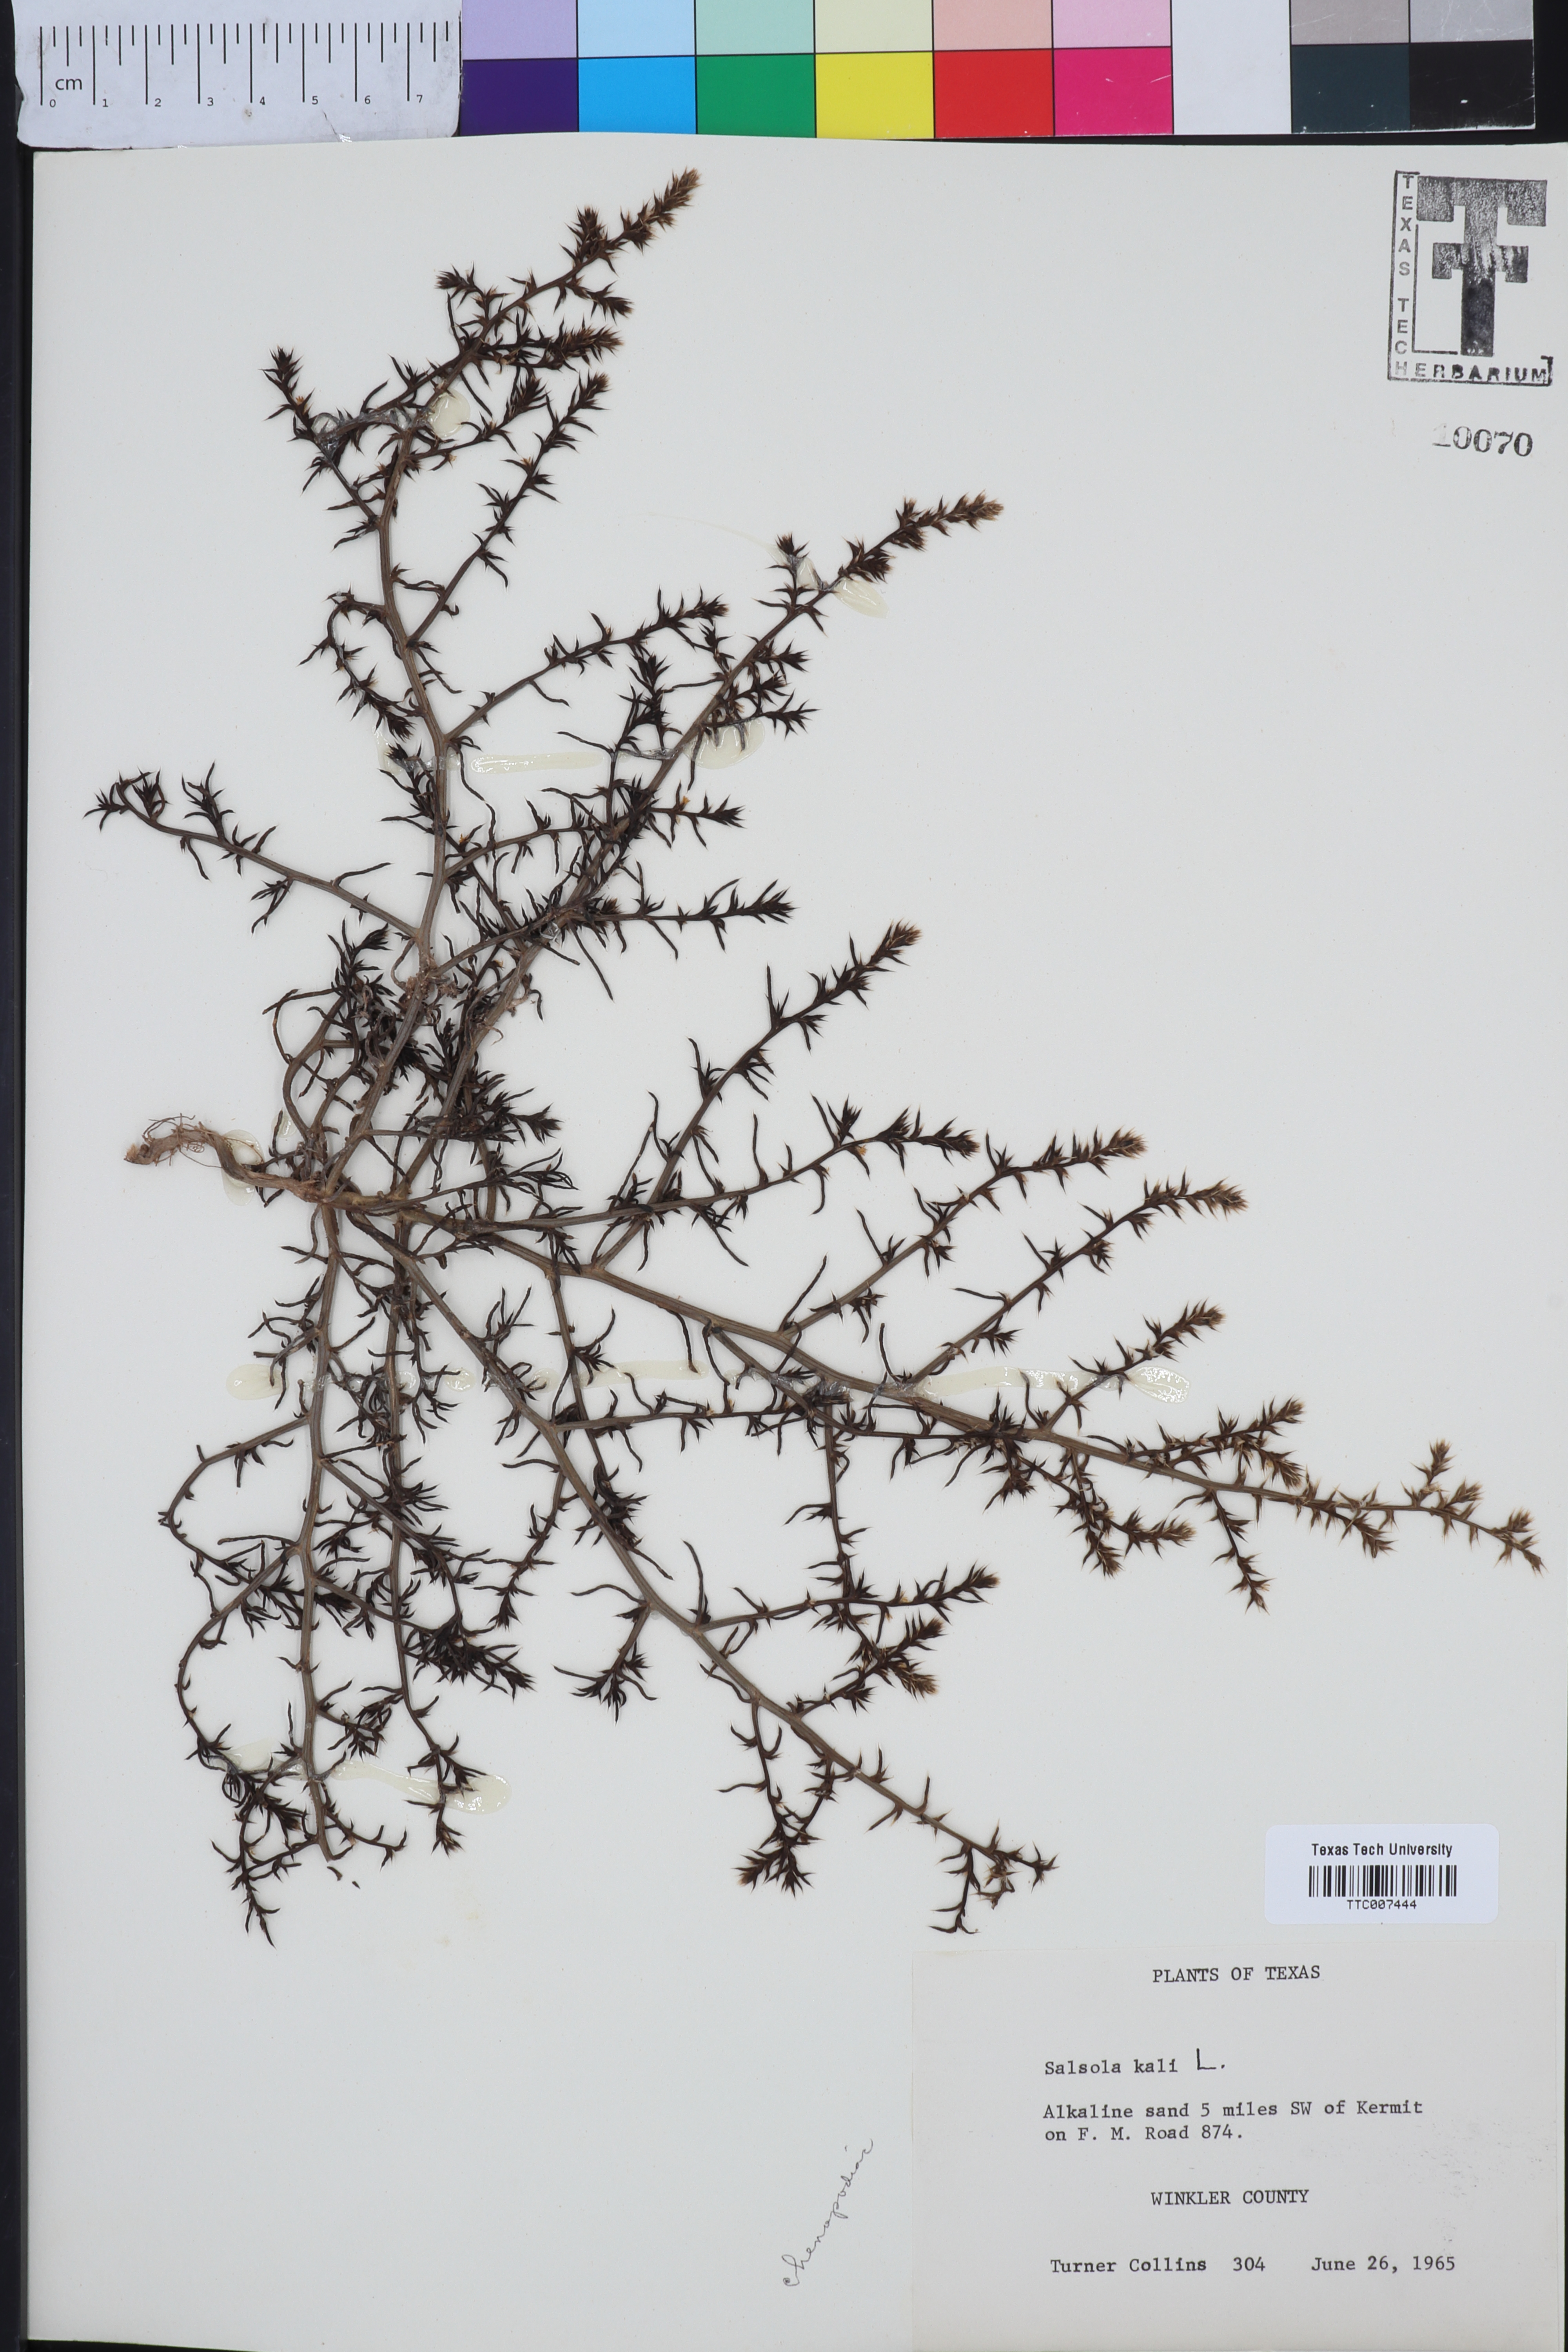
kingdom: Plantae
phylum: Tracheophyta
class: Magnoliopsida
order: Caryophyllales
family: Amaranthaceae
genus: Salsola
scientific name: Salsola kali
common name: Saltwort
